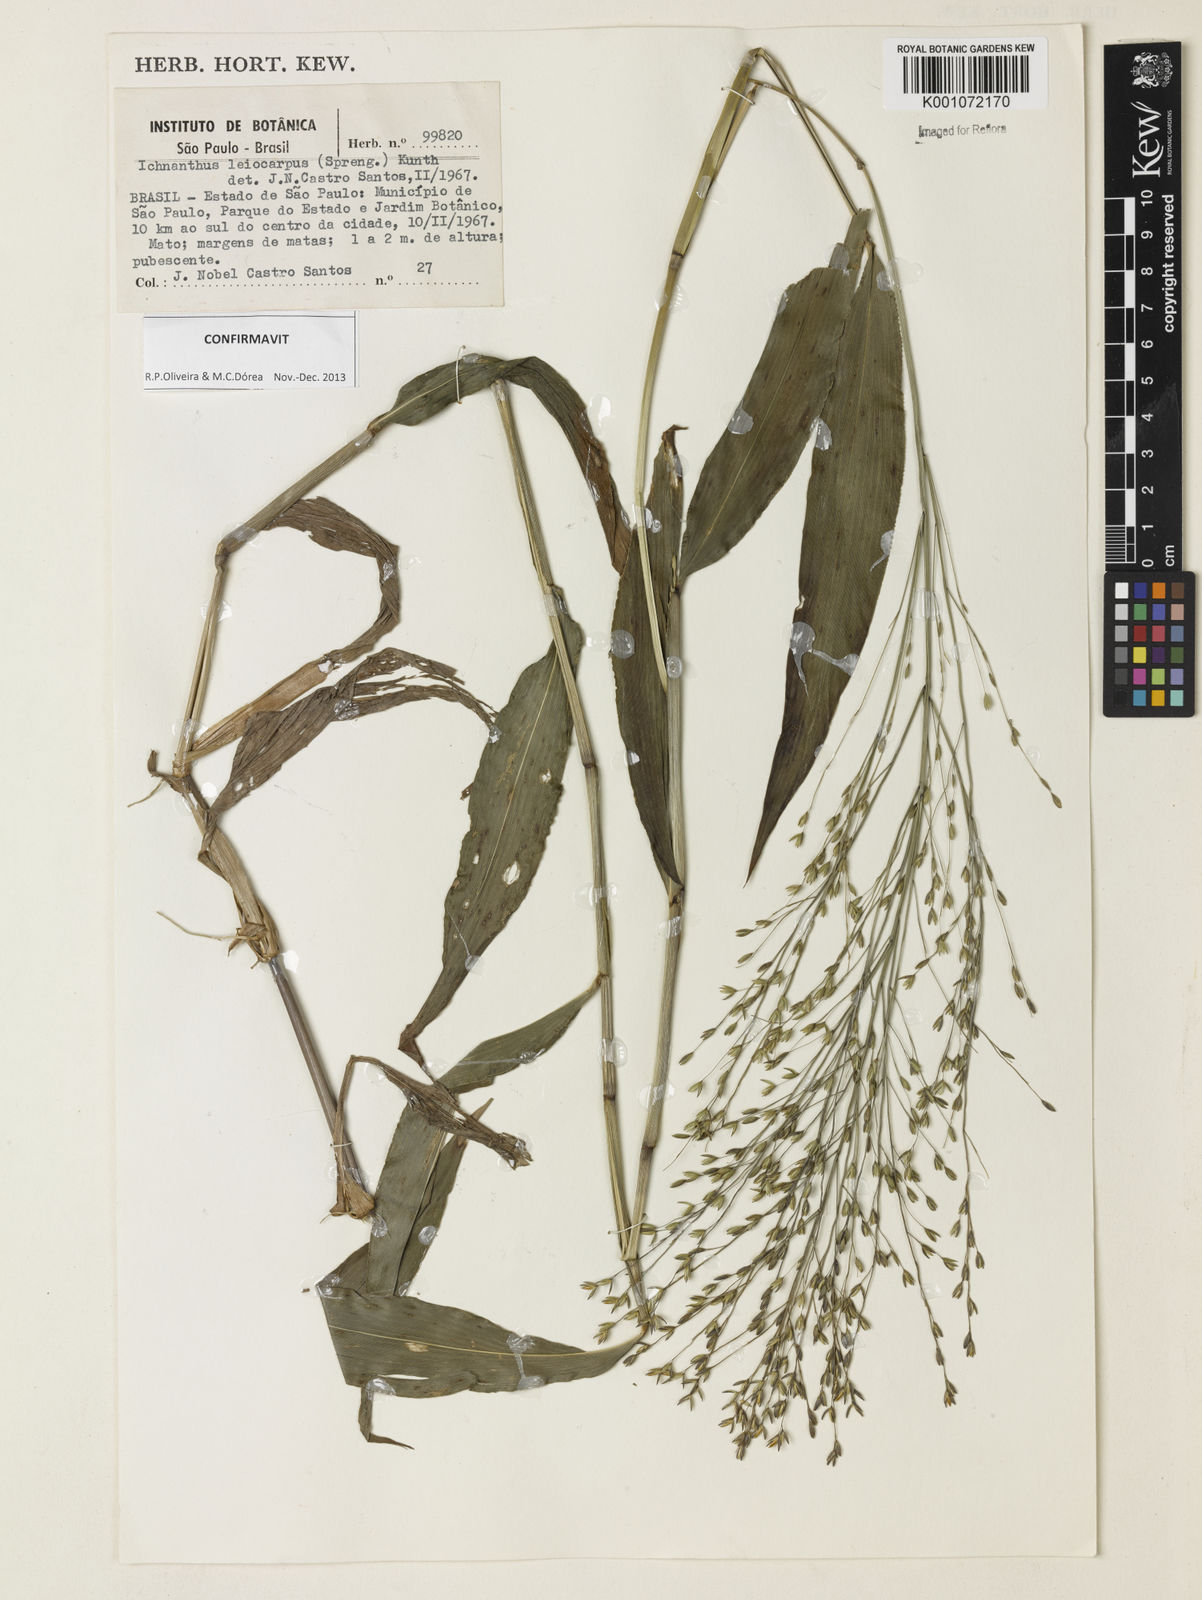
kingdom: Plantae
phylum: Tracheophyta
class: Liliopsida
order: Poales
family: Poaceae
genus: Ichnanthus
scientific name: Ichnanthus leiocarpus
